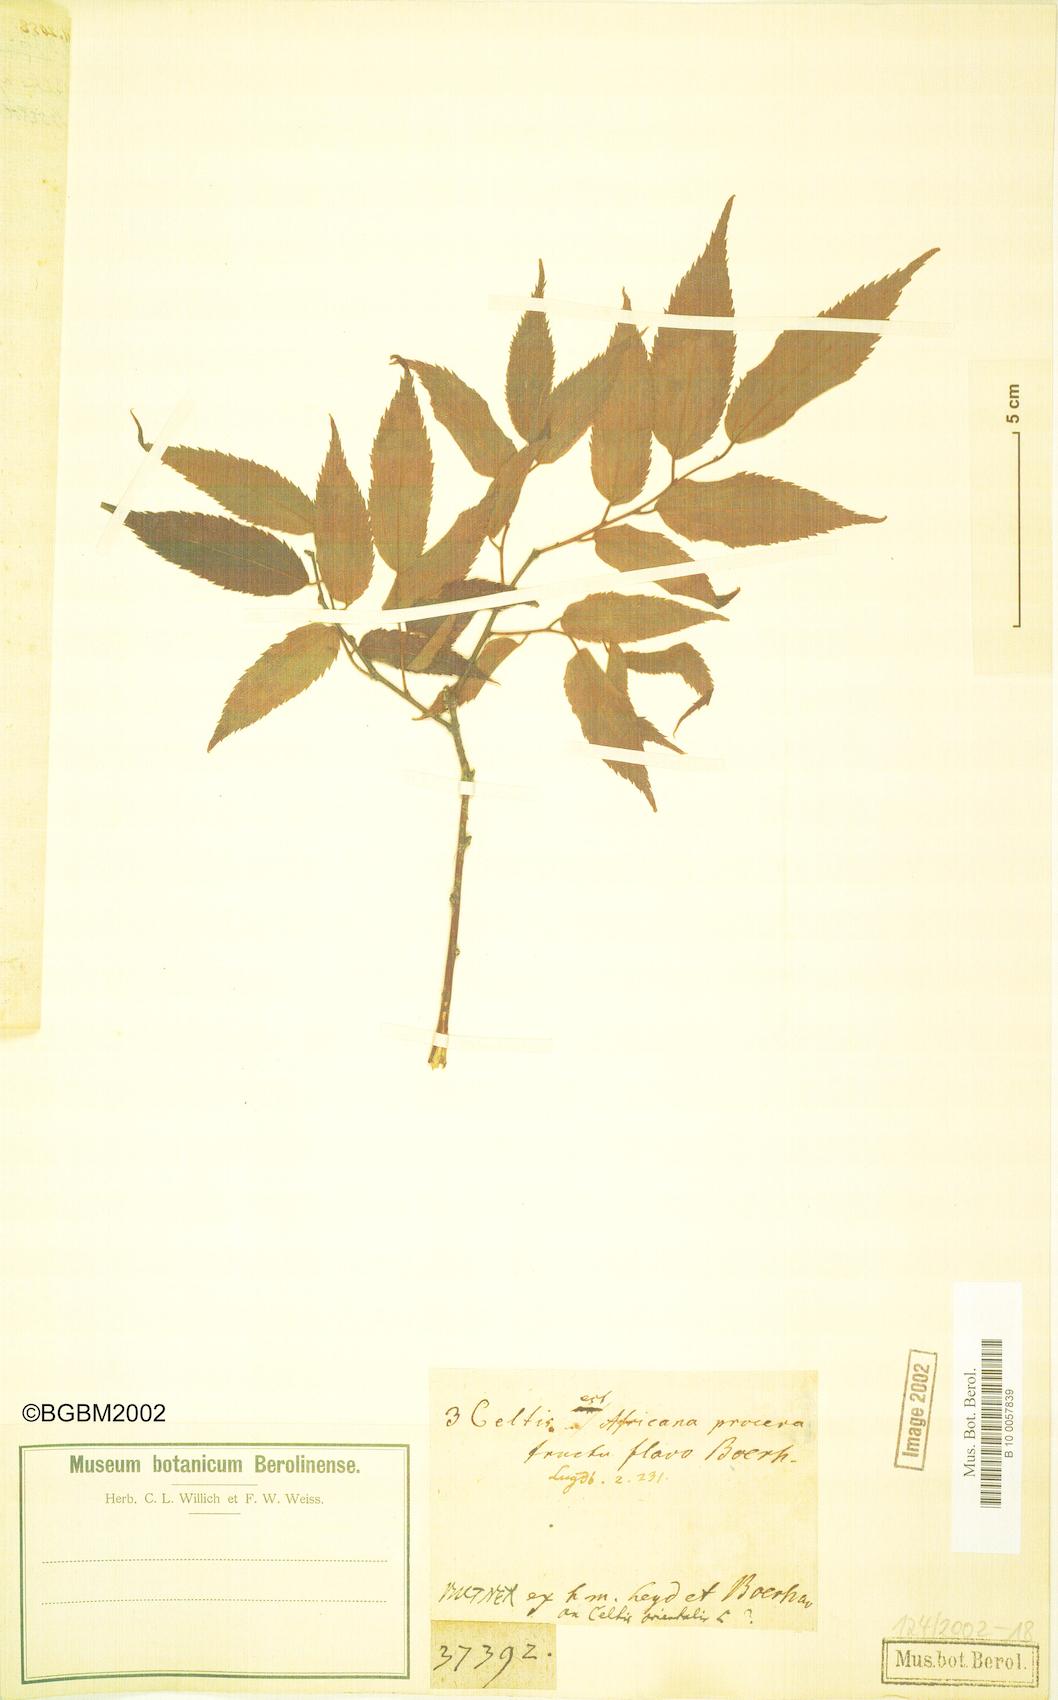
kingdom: Plantae
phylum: Tracheophyta
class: Magnoliopsida
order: Rosales
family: Cannabaceae
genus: Celtis
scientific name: Celtis africana
